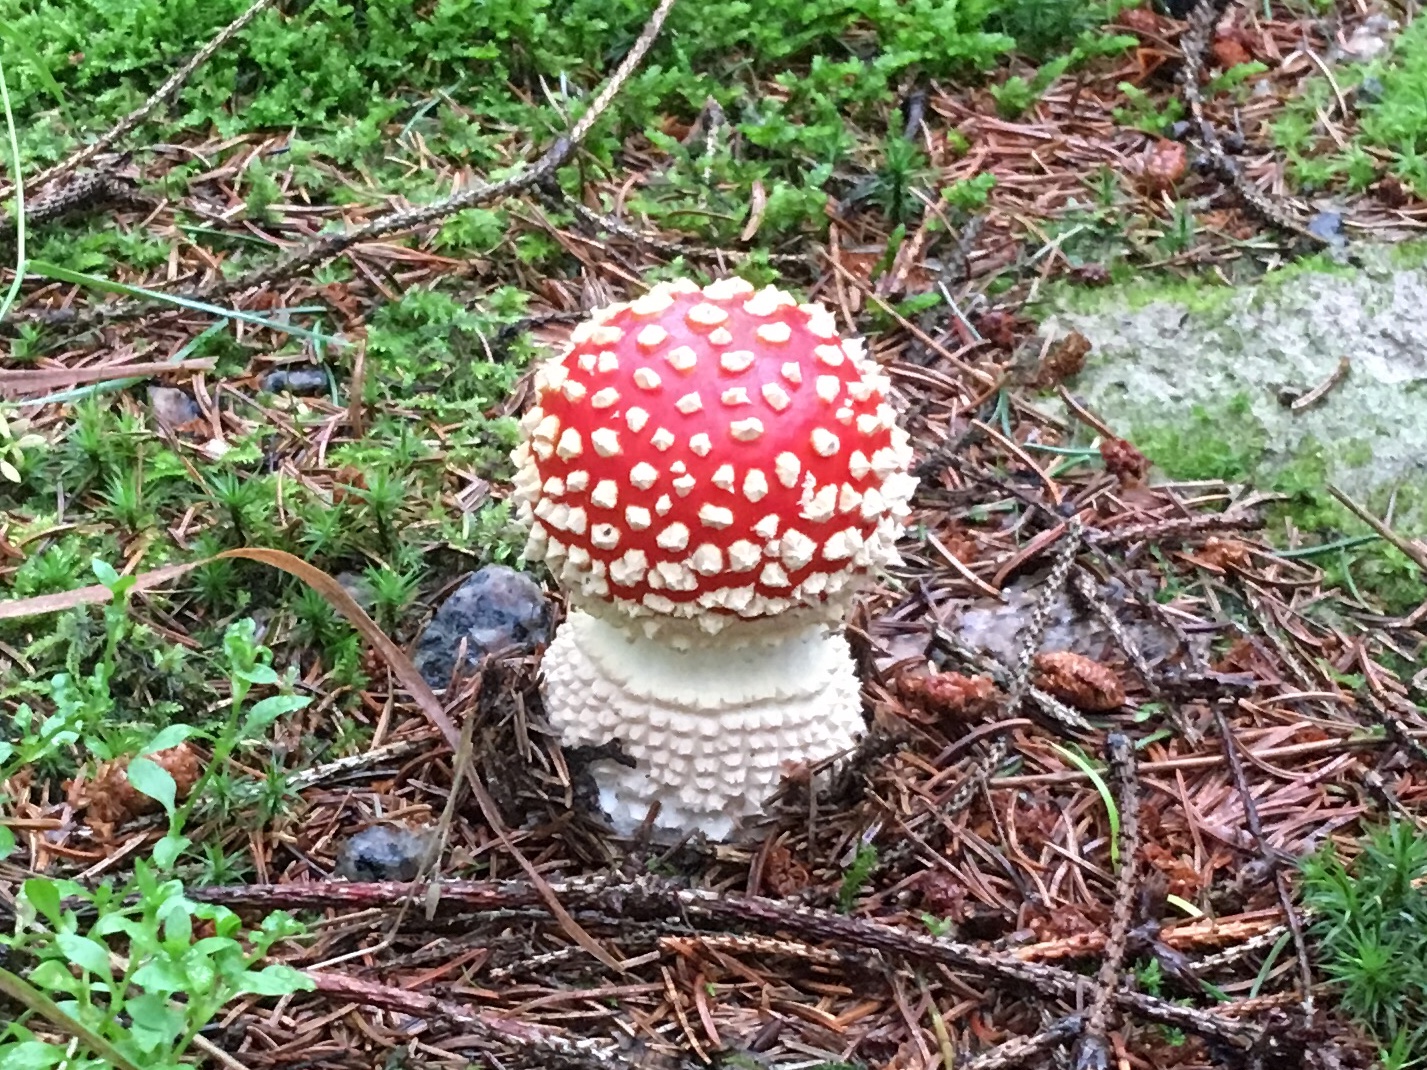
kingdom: Fungi
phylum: Basidiomycota
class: Agaricomycetes
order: Agaricales
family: Amanitaceae
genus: Amanita
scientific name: Amanita muscaria
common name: rød fluesvamp
